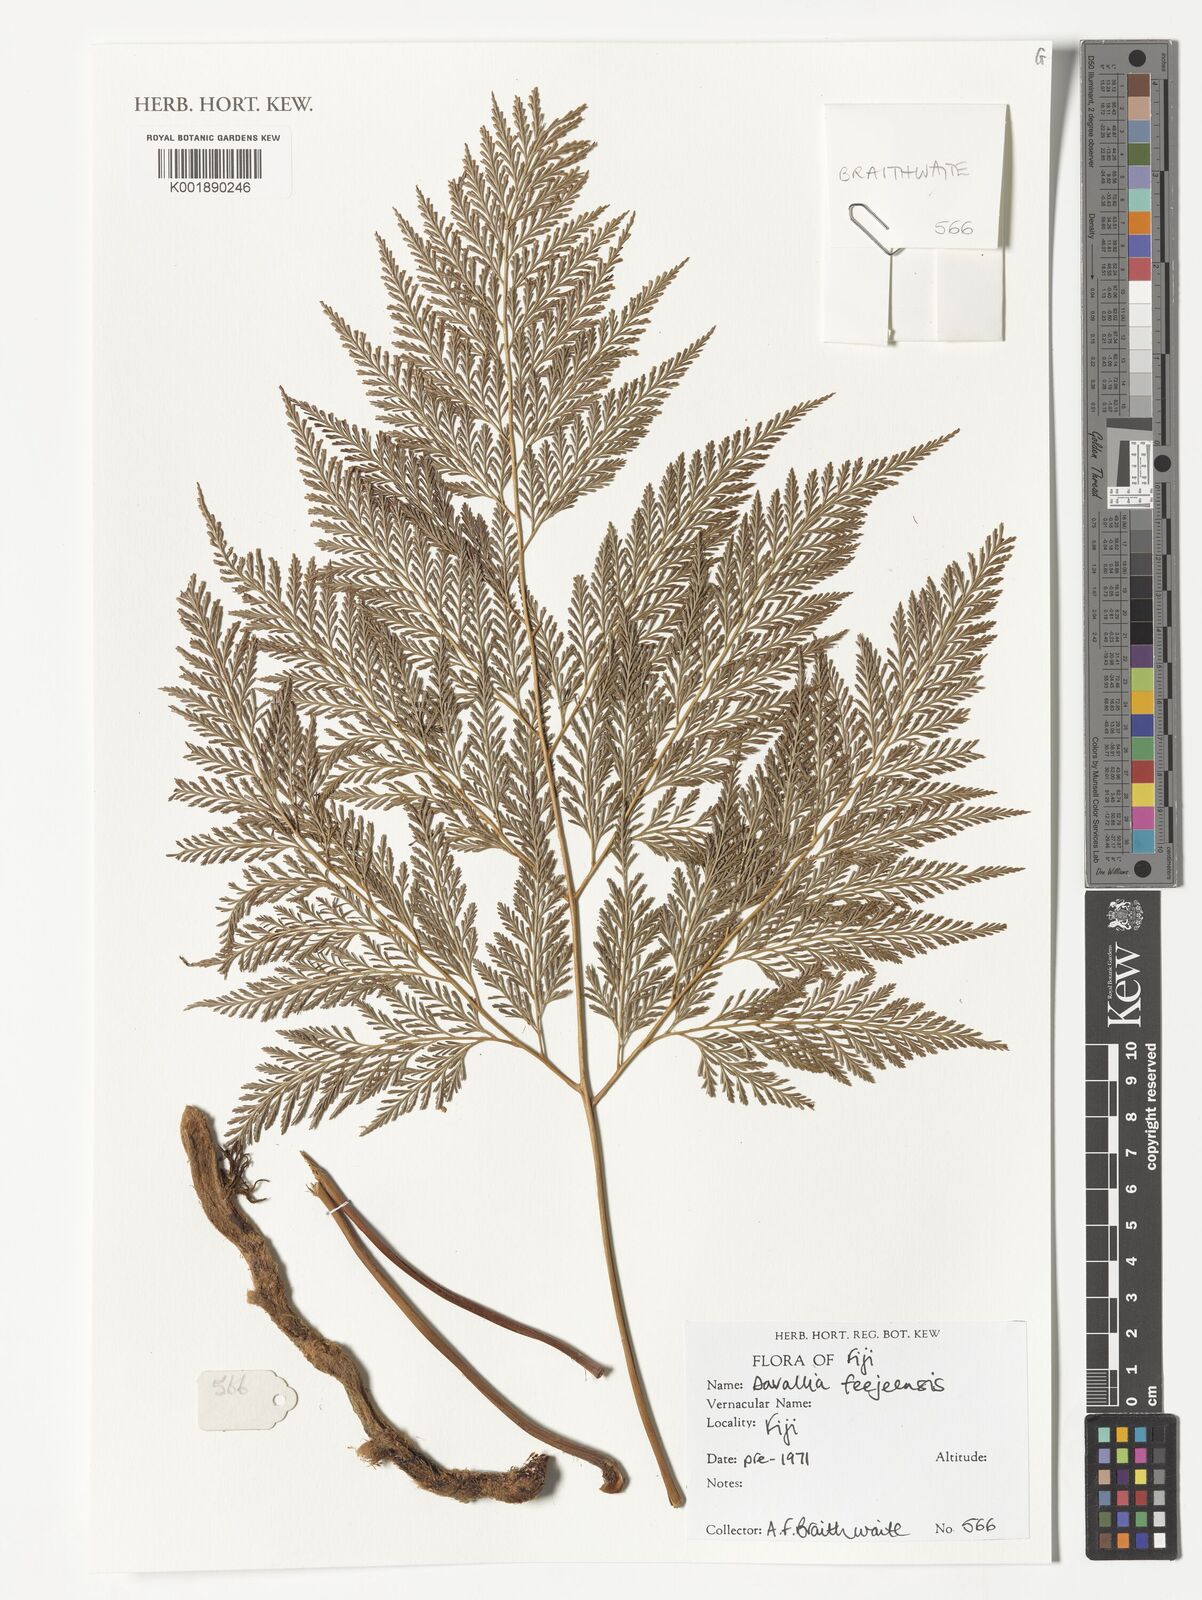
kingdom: Plantae
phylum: Tracheophyta
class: Polypodiopsida
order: Polypodiales
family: Davalliaceae
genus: Davallia
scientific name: Davallia
